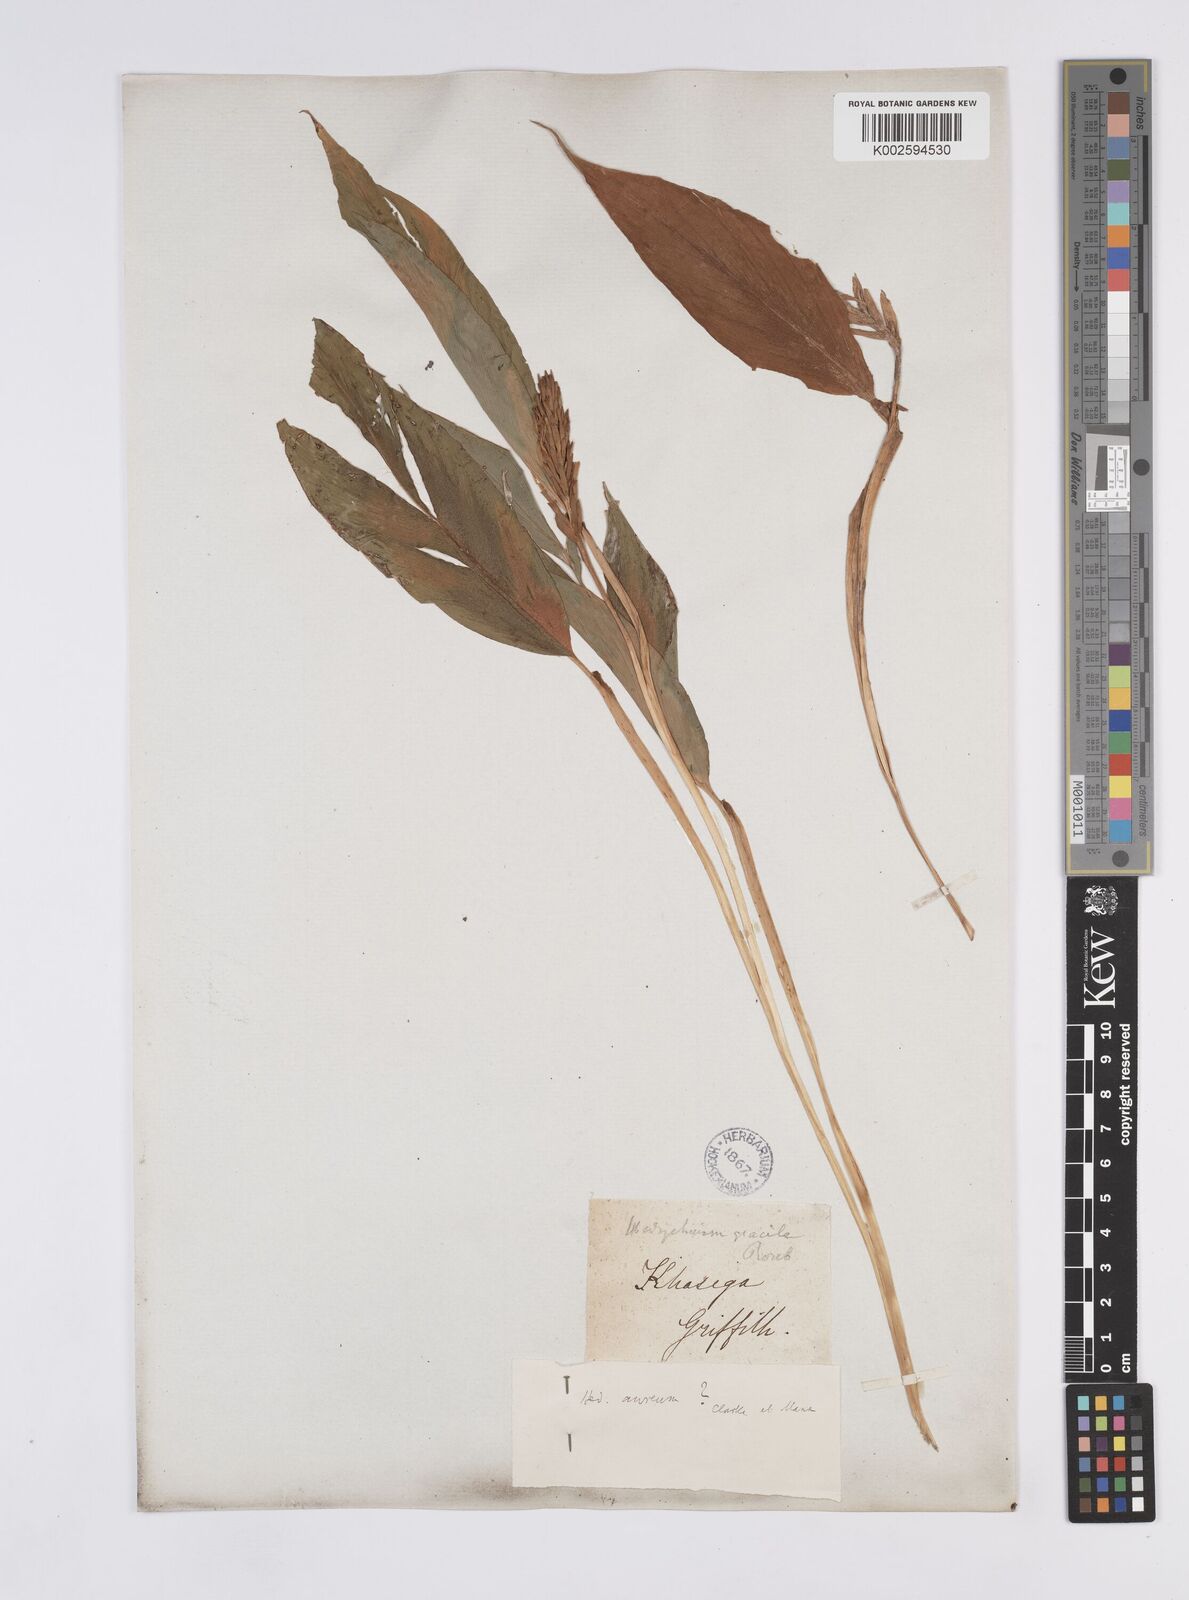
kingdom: Plantae
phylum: Tracheophyta
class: Liliopsida
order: Zingiberales
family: Zingiberaceae
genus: Hedychium
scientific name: Hedychium
